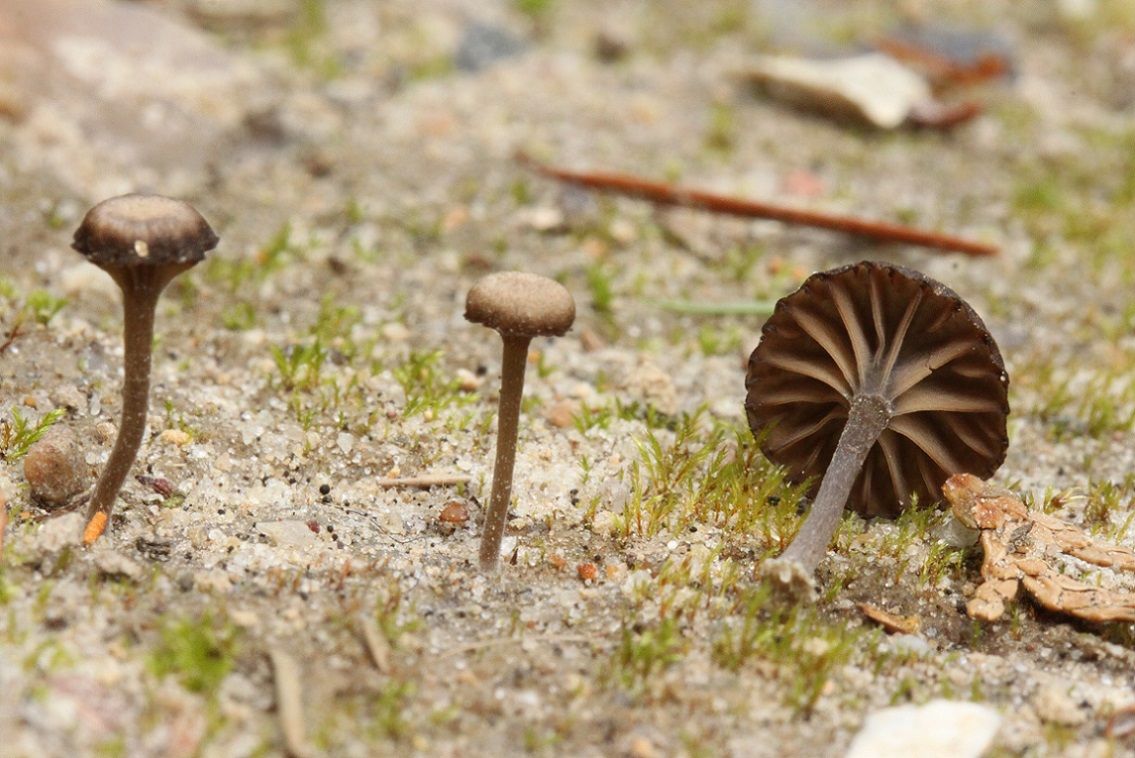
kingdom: Fungi
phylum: Basidiomycota
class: Agaricomycetes
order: Agaricales
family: Hygrophoraceae
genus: Arrhenia
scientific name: Arrhenia velutipes
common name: dunstokket fontænehat
